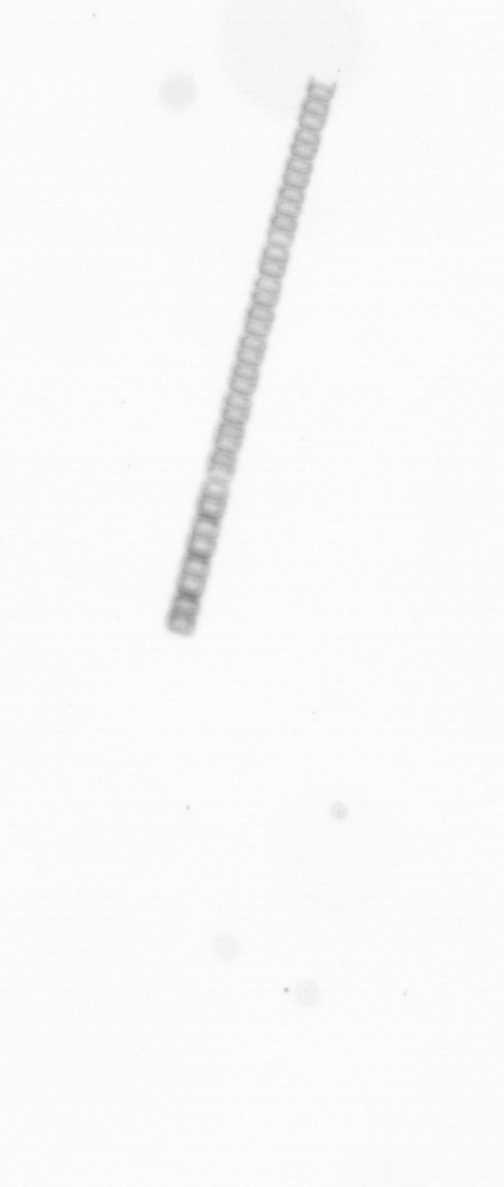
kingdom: Chromista
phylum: Ochrophyta
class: Bacillariophyceae
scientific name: Bacillariophyceae
